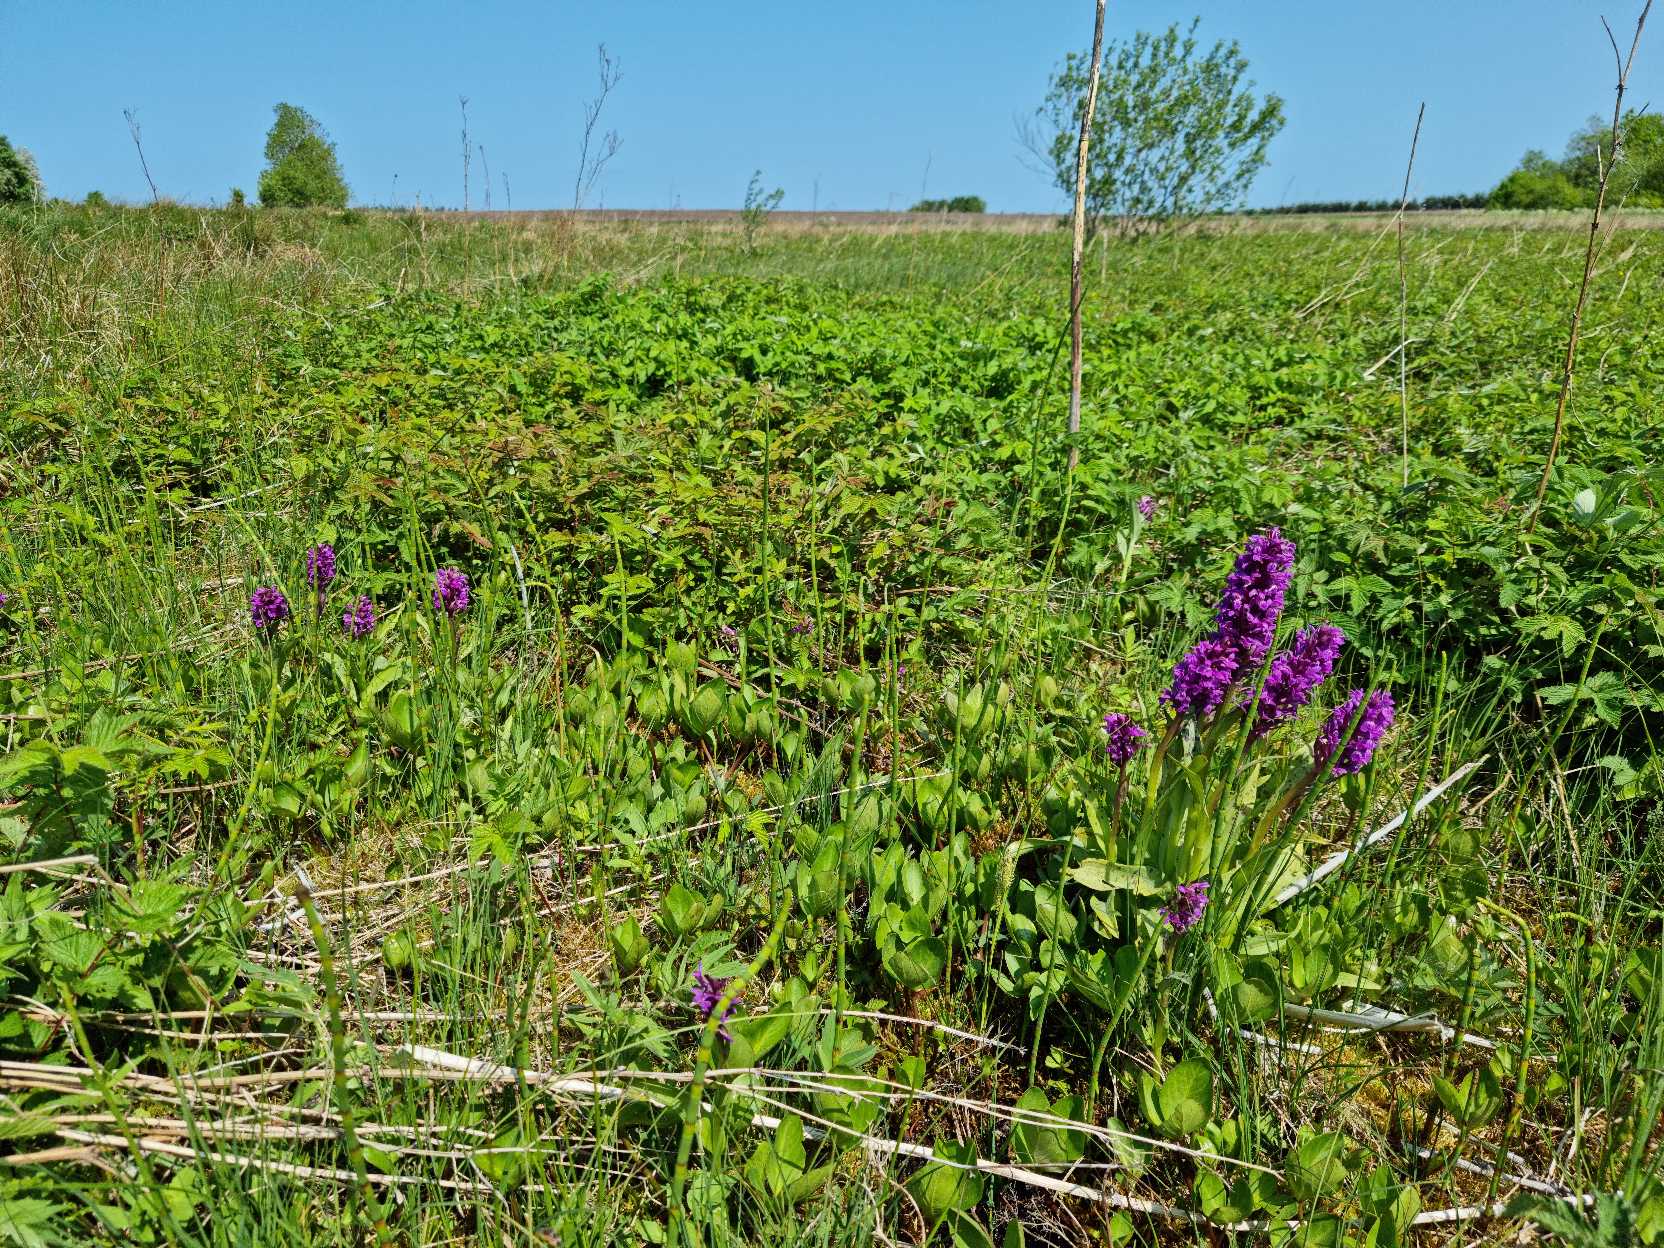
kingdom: Plantae
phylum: Tracheophyta
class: Liliopsida
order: Asparagales
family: Orchidaceae
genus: Dactylorhiza
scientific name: Dactylorhiza majalis
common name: Maj-gøgeurt
